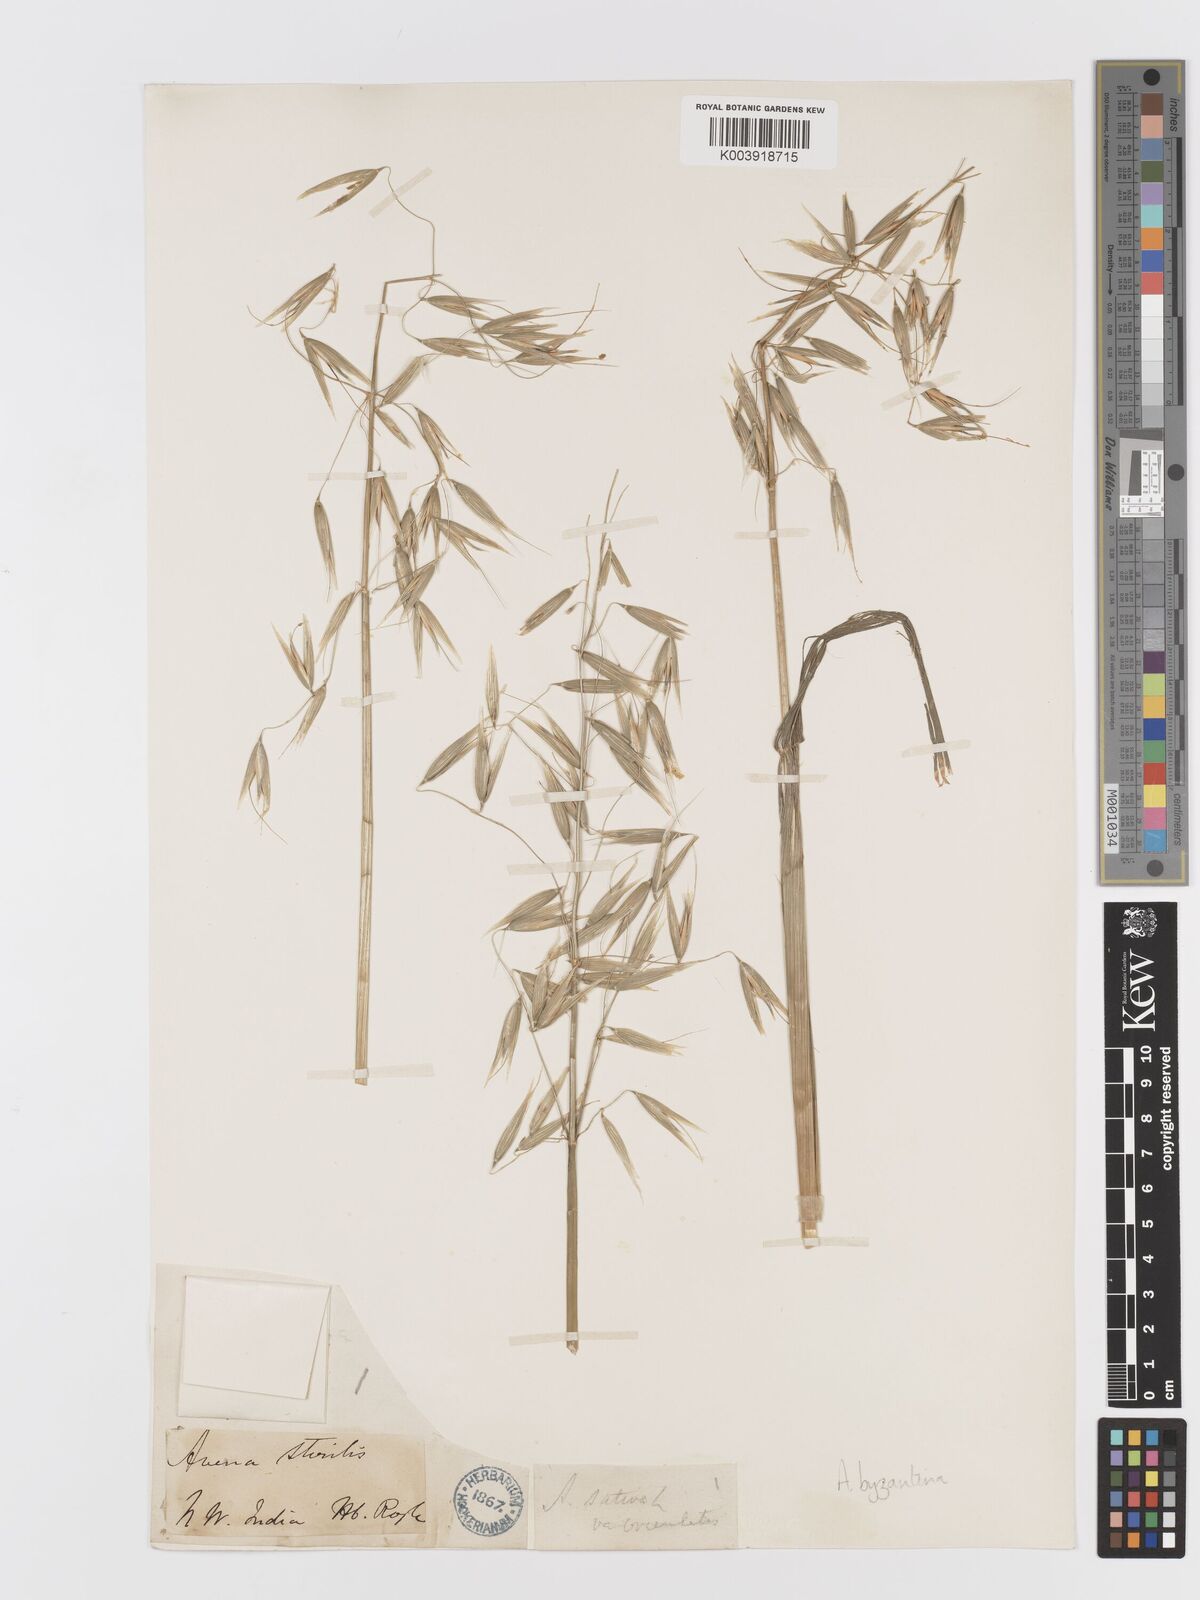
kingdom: Plantae
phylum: Tracheophyta
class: Liliopsida
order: Poales
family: Poaceae
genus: Avena
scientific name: Avena byzantina
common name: Algerian oat
